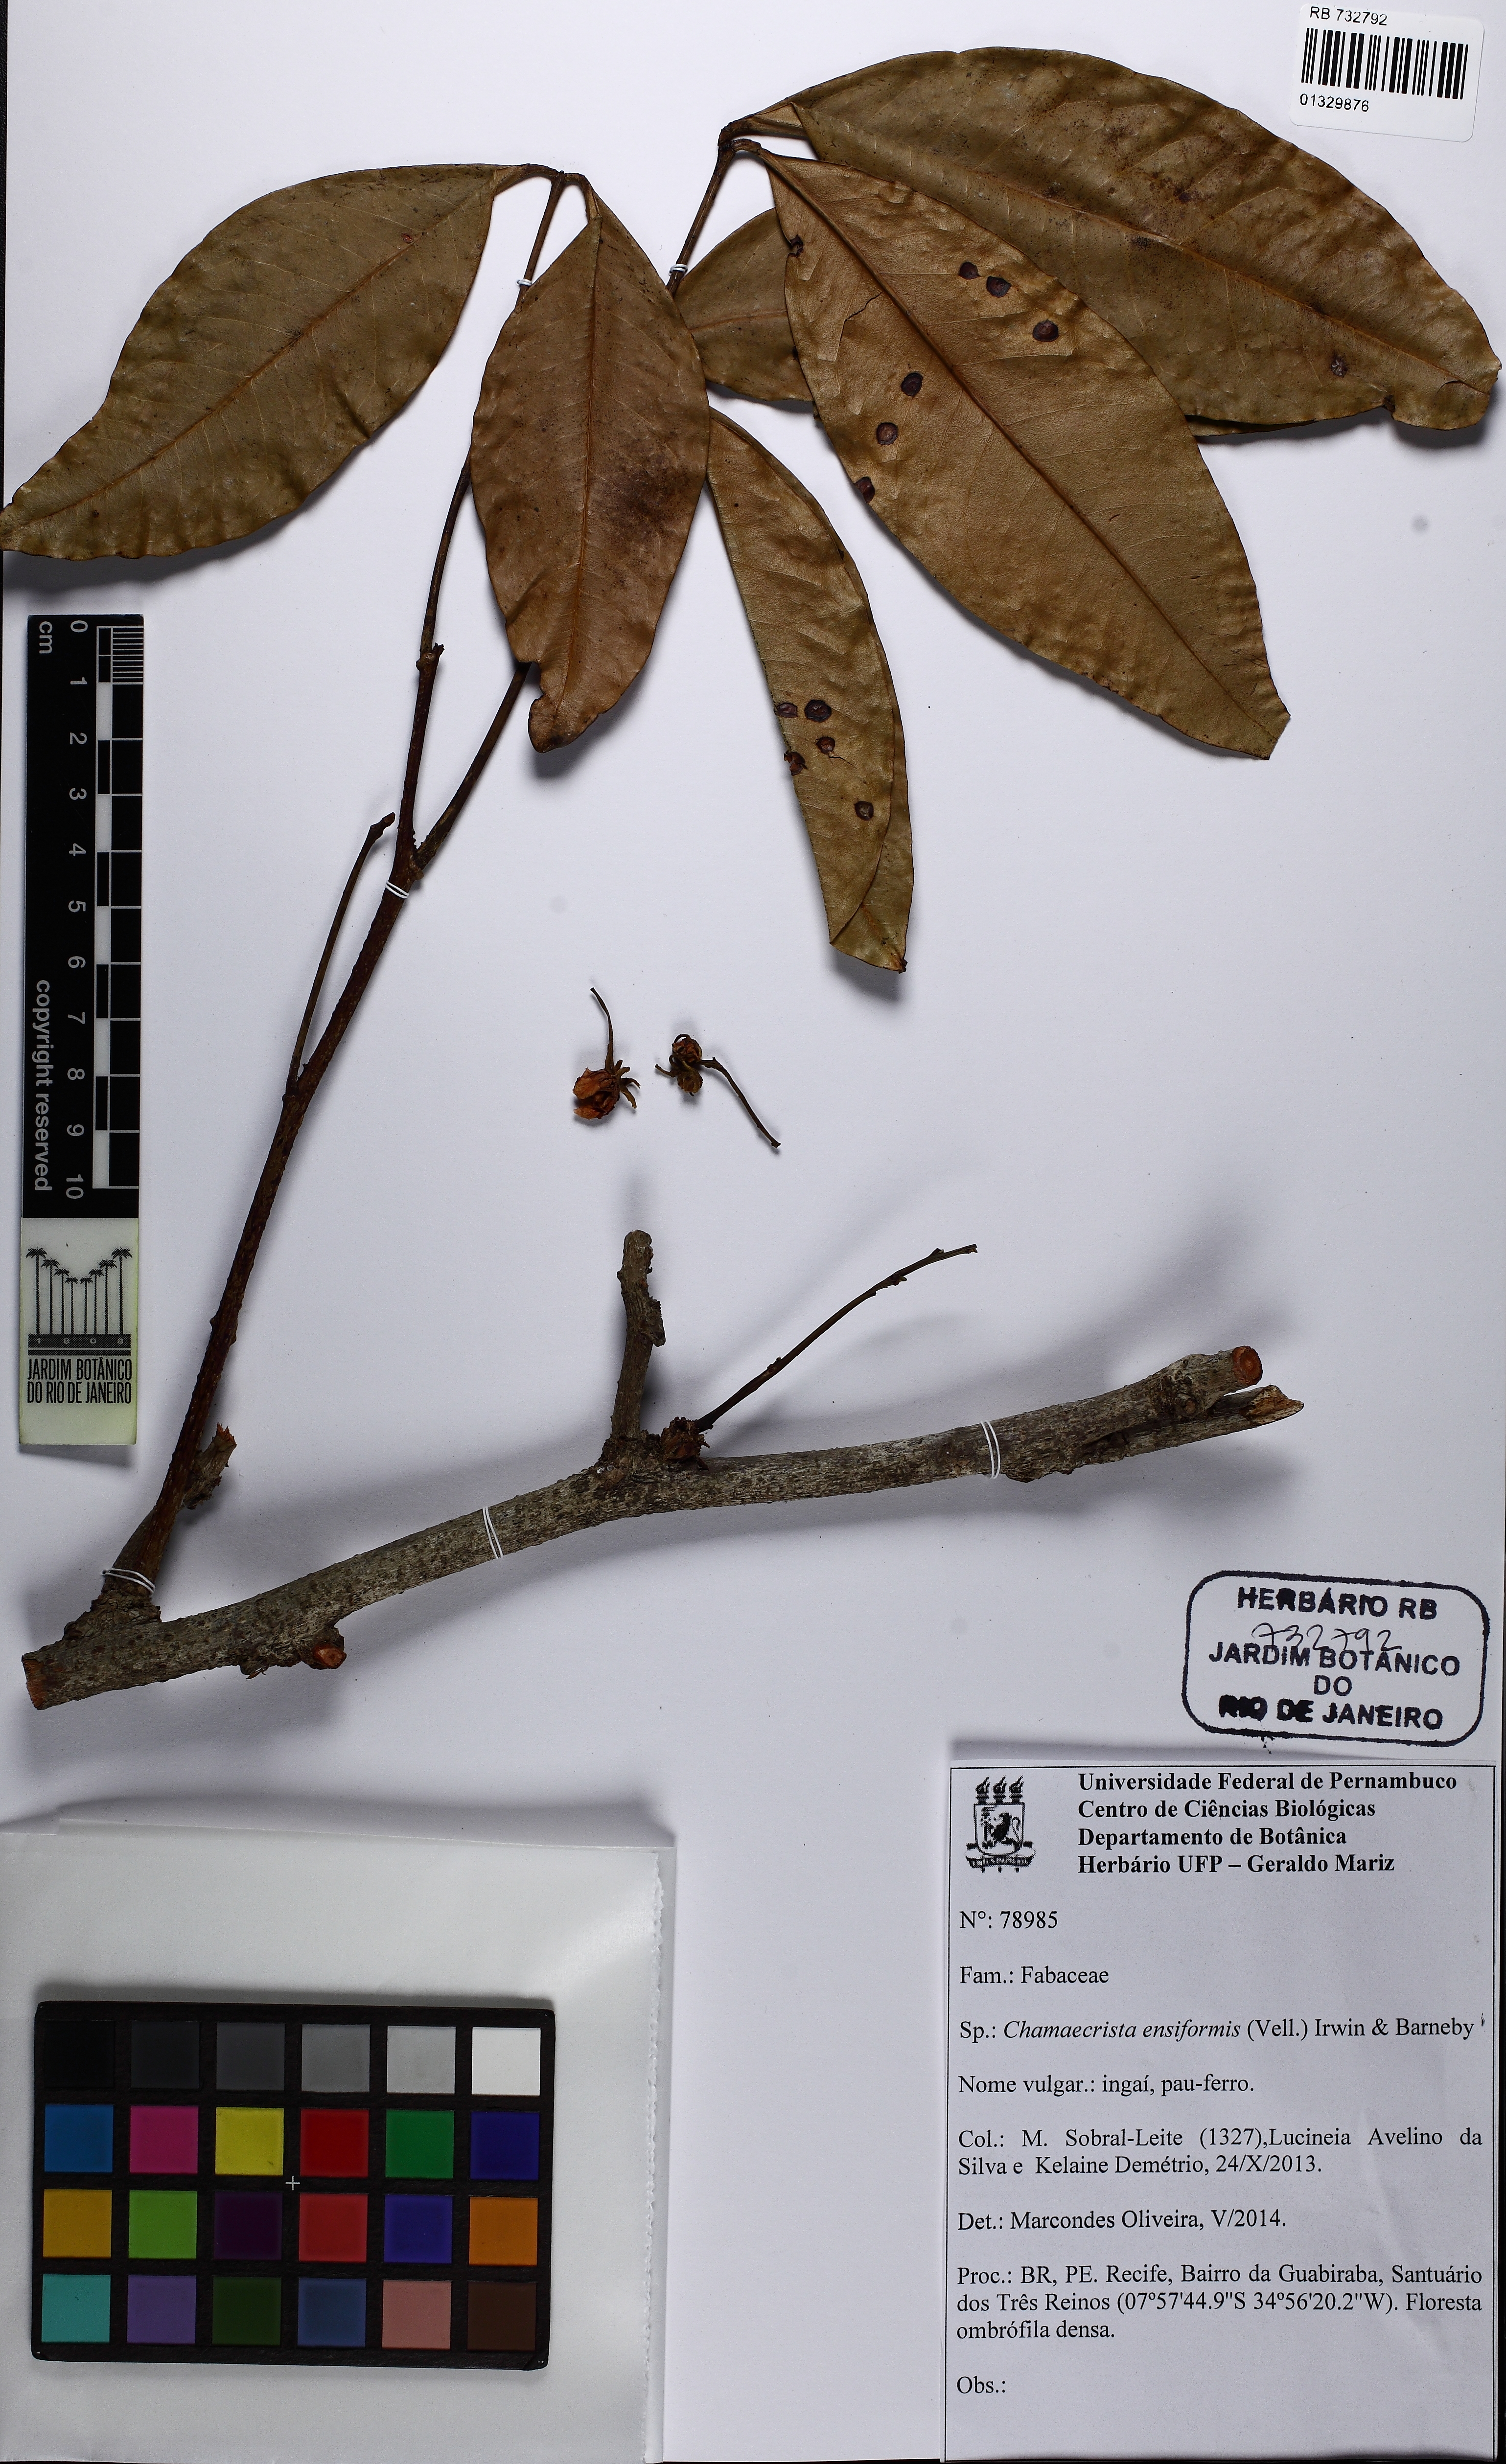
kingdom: Plantae
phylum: Tracheophyta
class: Magnoliopsida
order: Fabales
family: Fabaceae
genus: Chamaecrista
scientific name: Chamaecrista ensiformis
